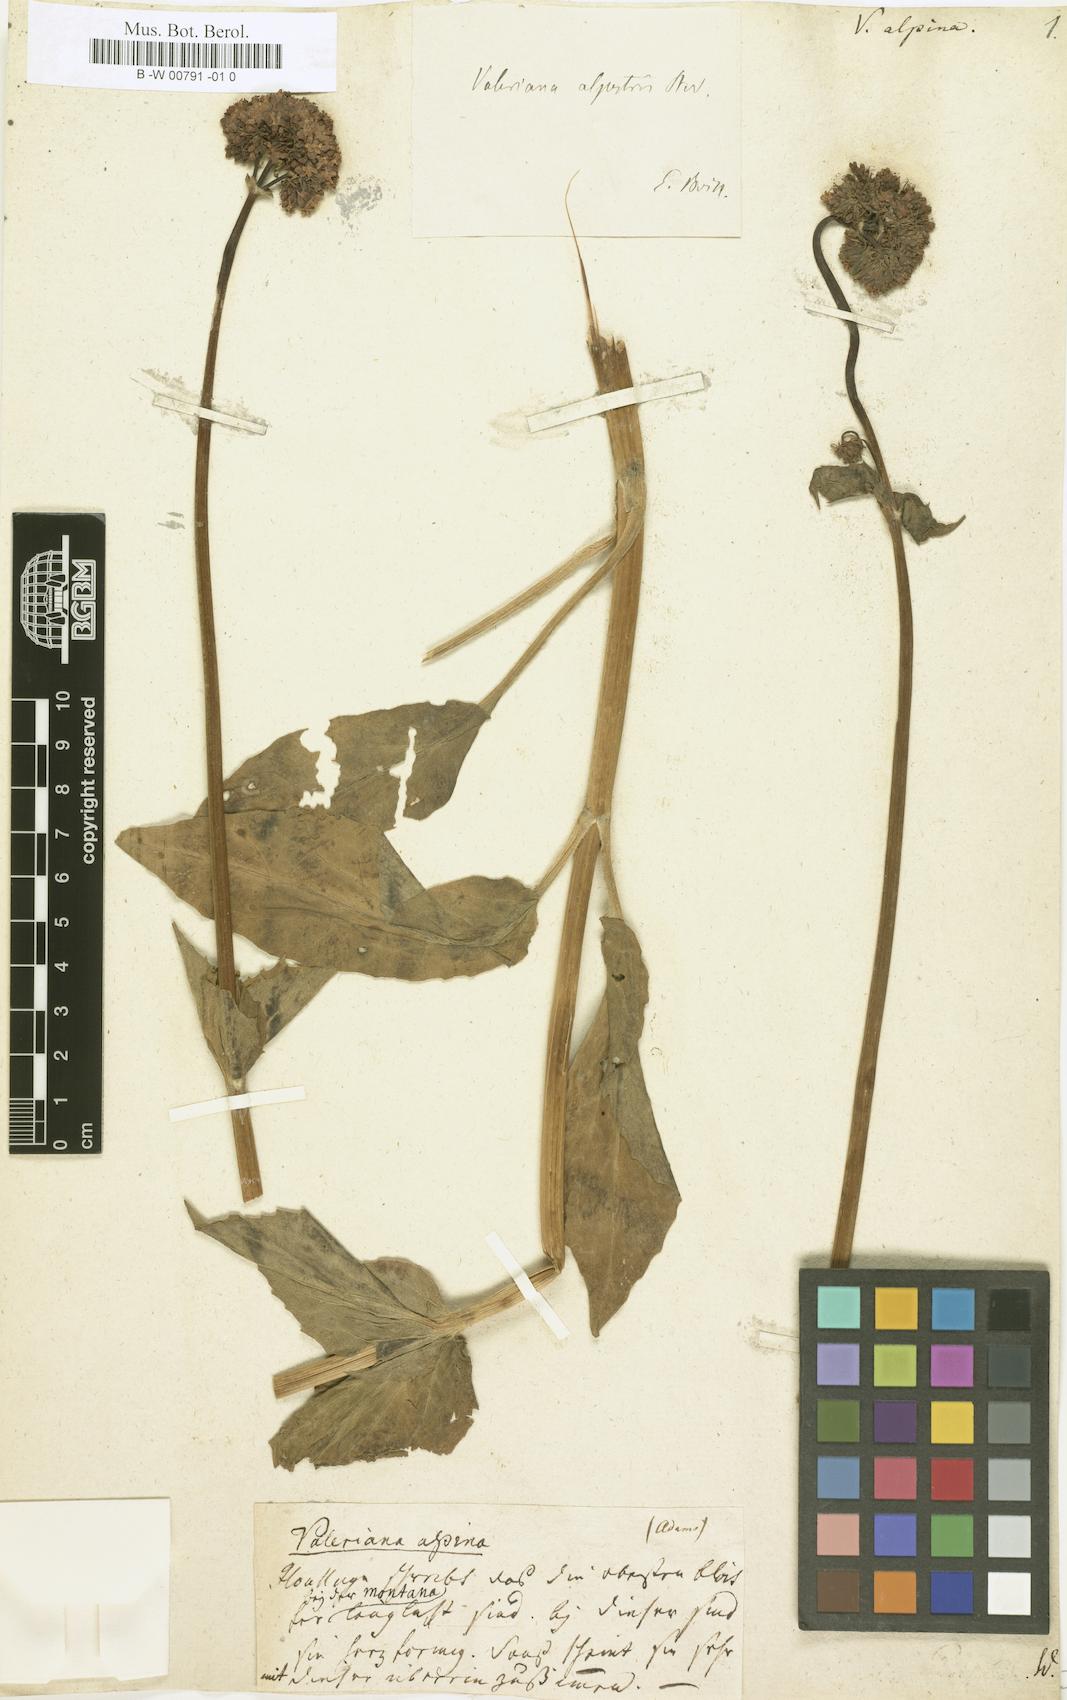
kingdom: Plantae
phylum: Tracheophyta
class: Magnoliopsida
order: Dipsacales
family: Caprifoliaceae
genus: Valeriana
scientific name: Valeriana
